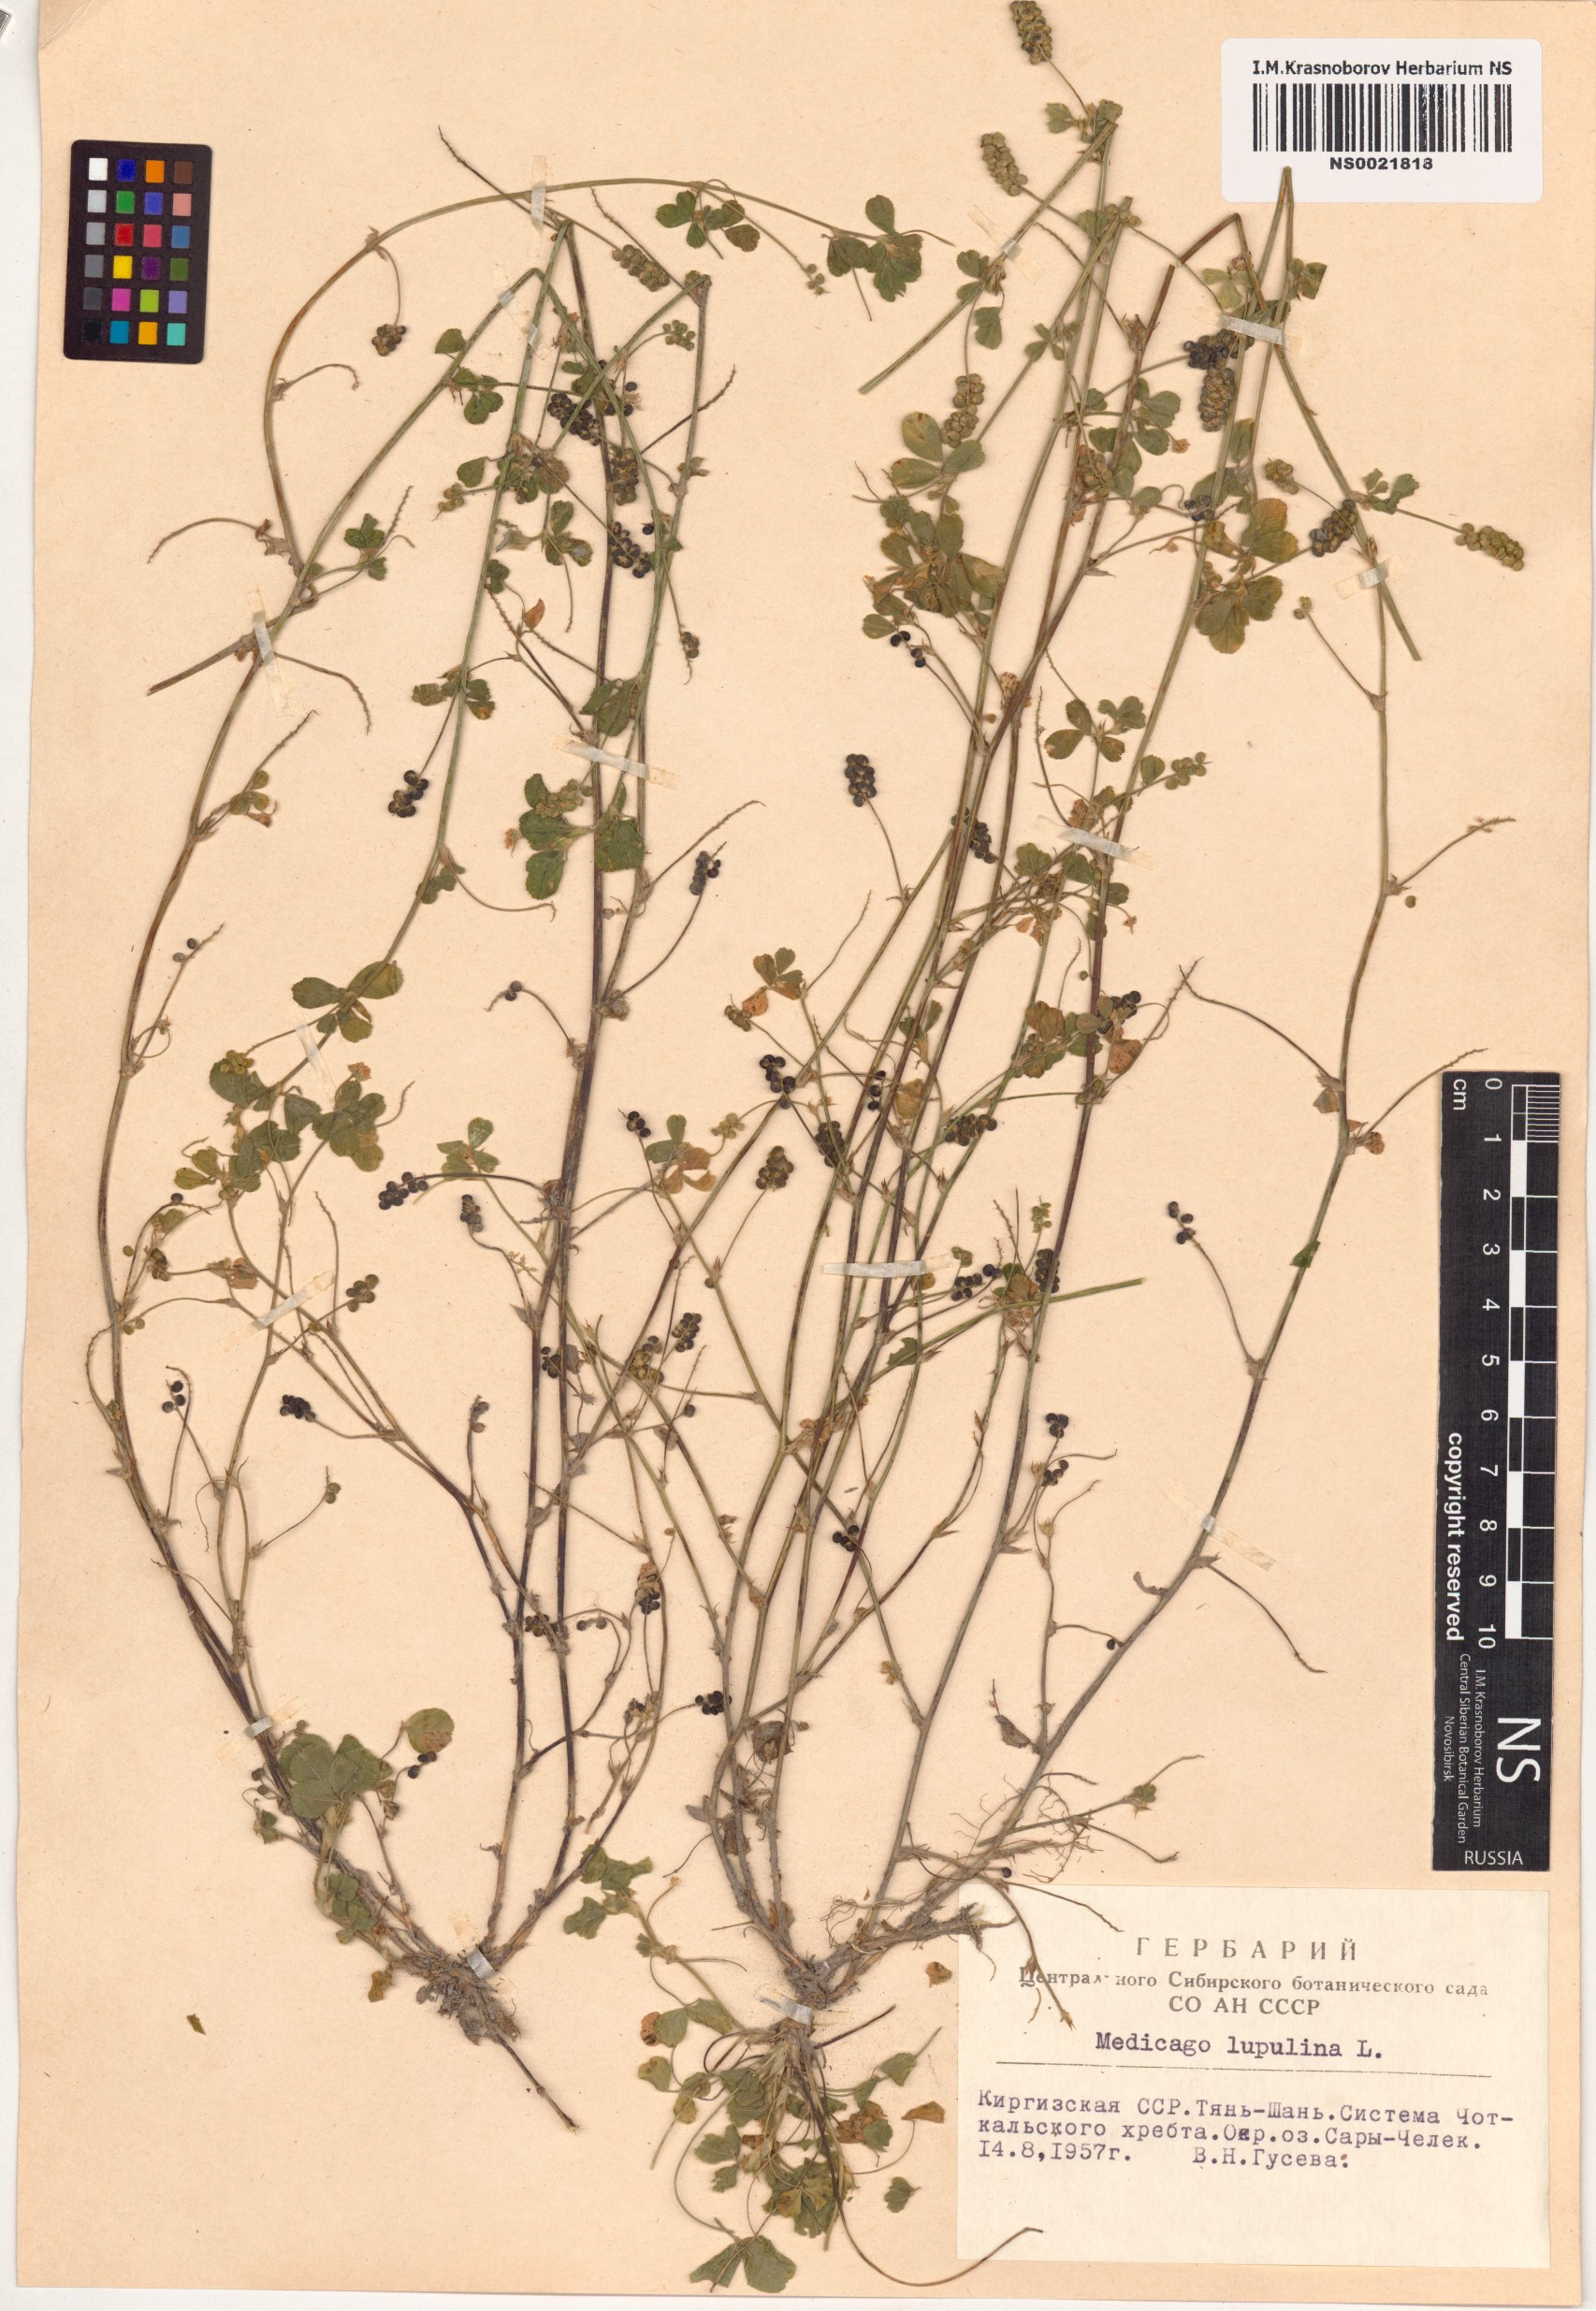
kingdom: Plantae
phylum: Tracheophyta
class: Magnoliopsida
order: Fabales
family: Fabaceae
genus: Medicago
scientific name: Medicago lupulina
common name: Black medick
